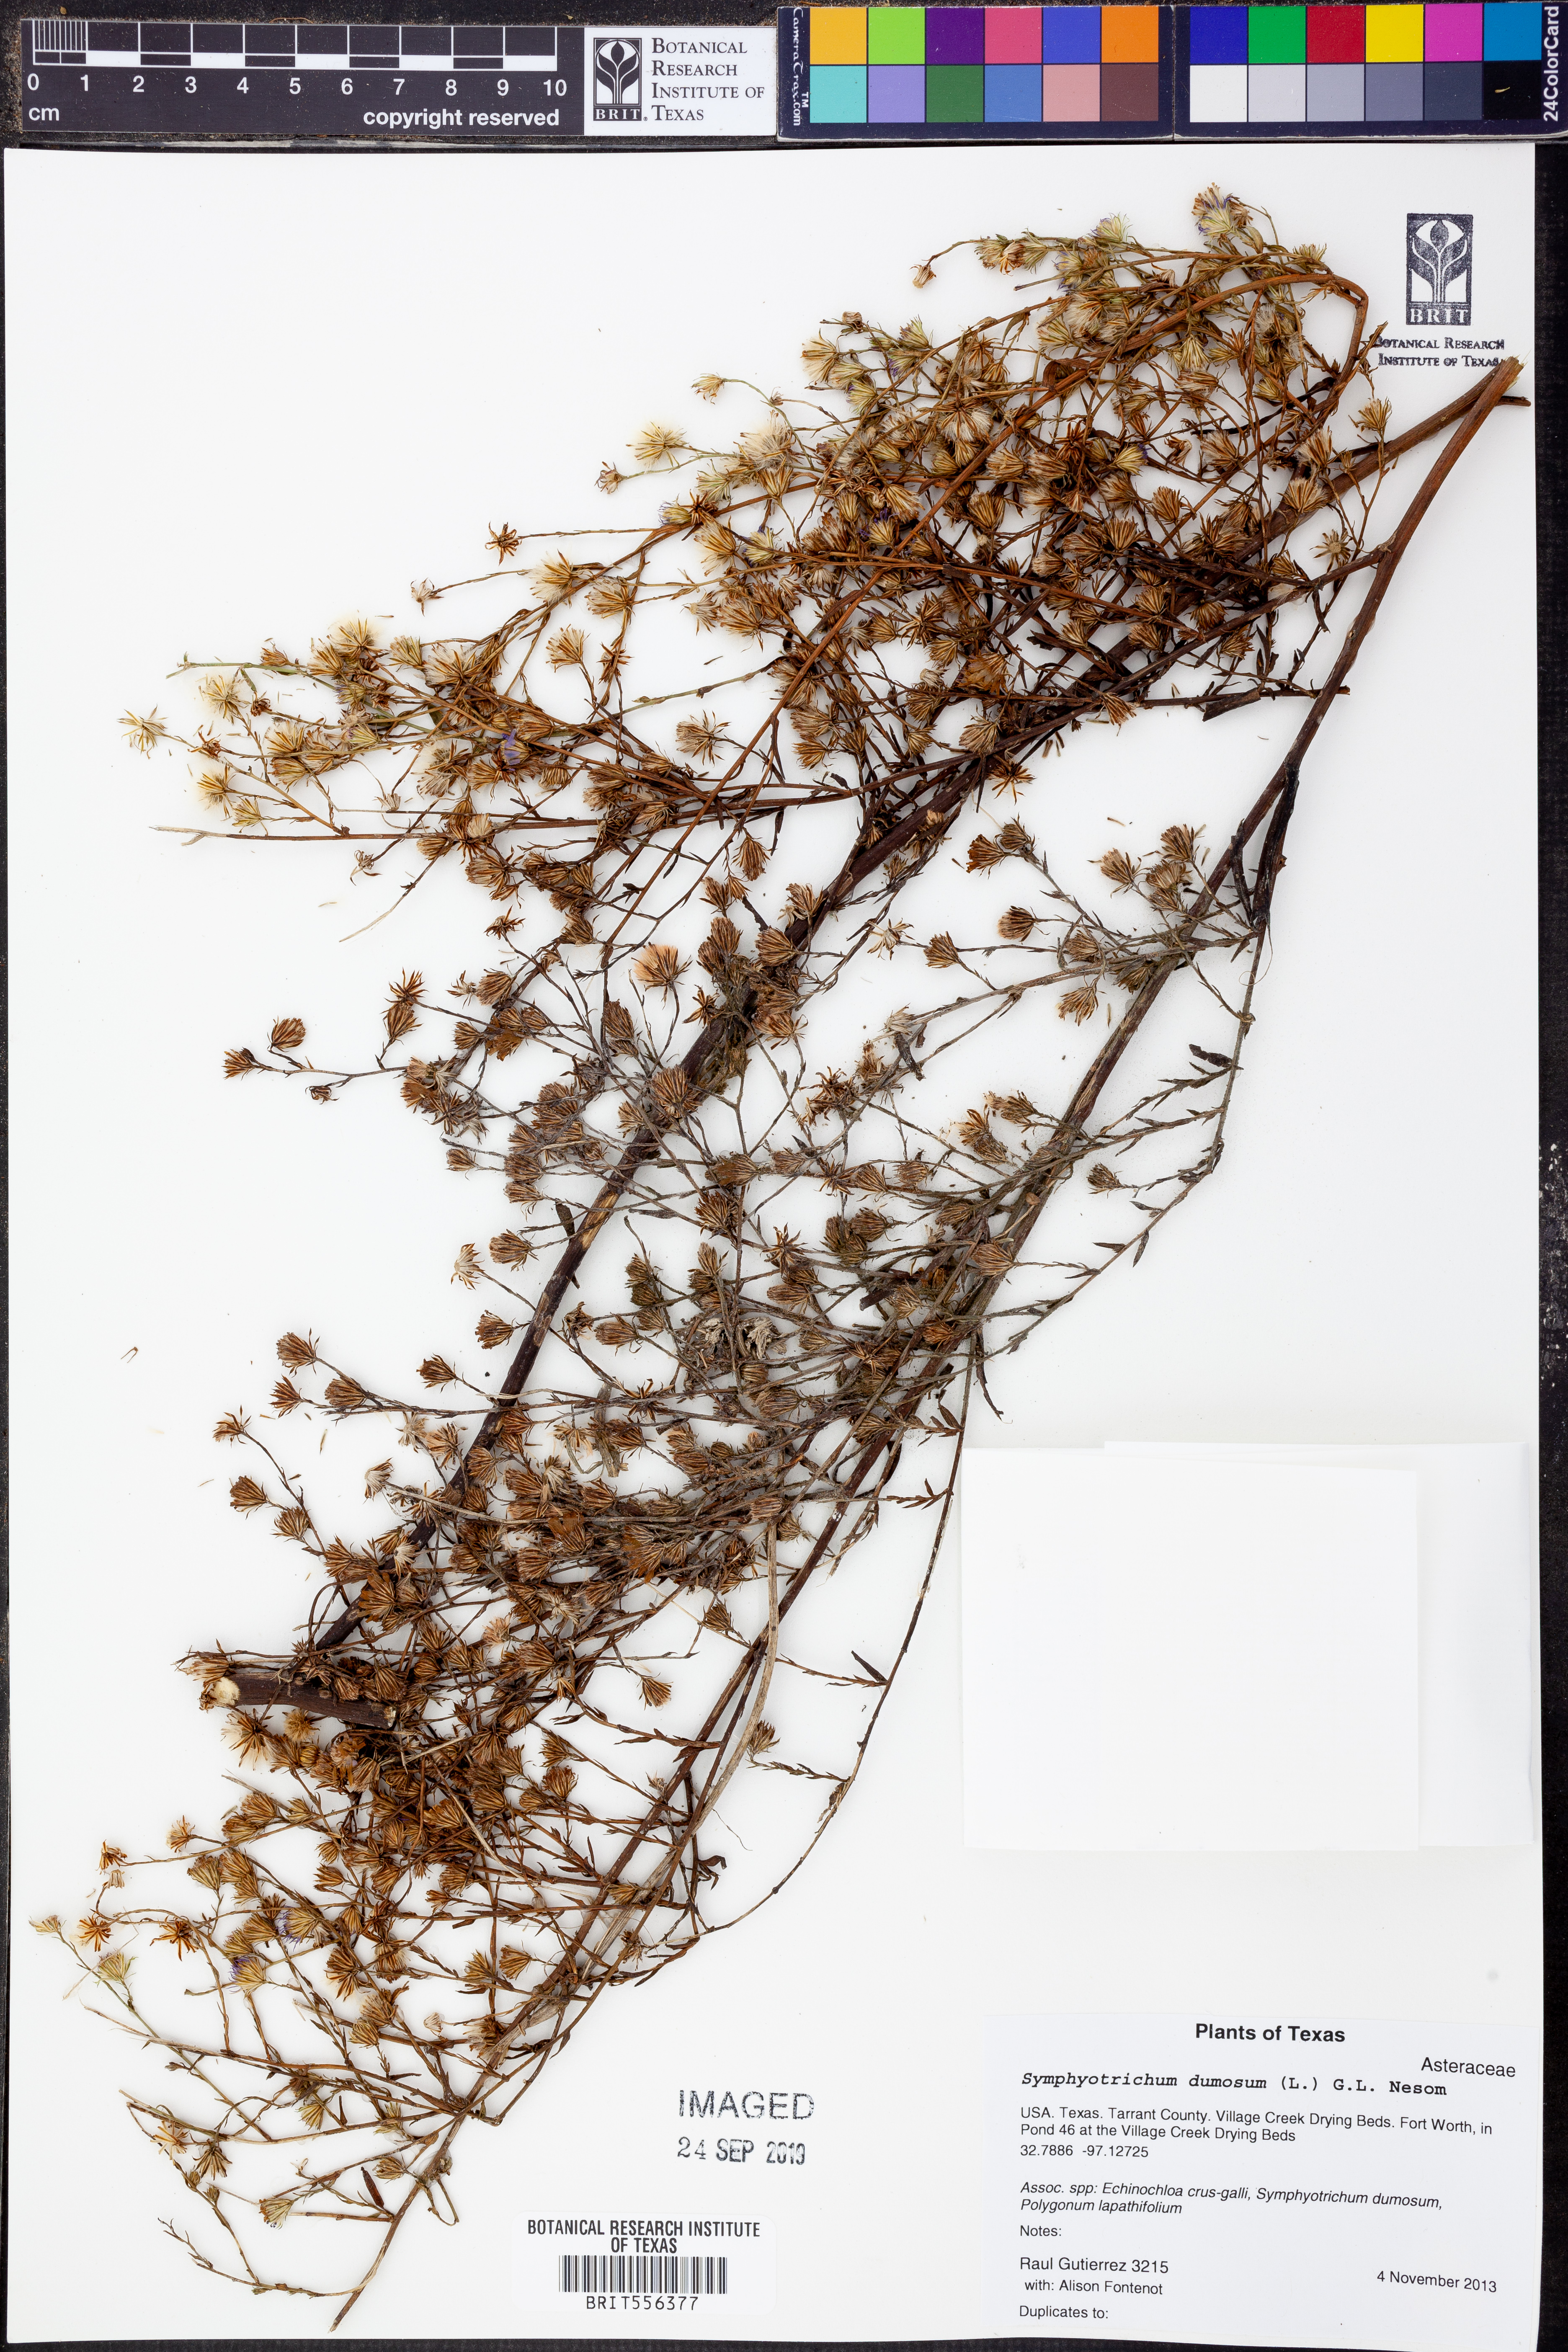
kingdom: Plantae
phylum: Tracheophyta
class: Magnoliopsida
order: Asterales
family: Asteraceae
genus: Symphyotrichum
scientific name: Symphyotrichum dumosum
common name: Bushy aster
